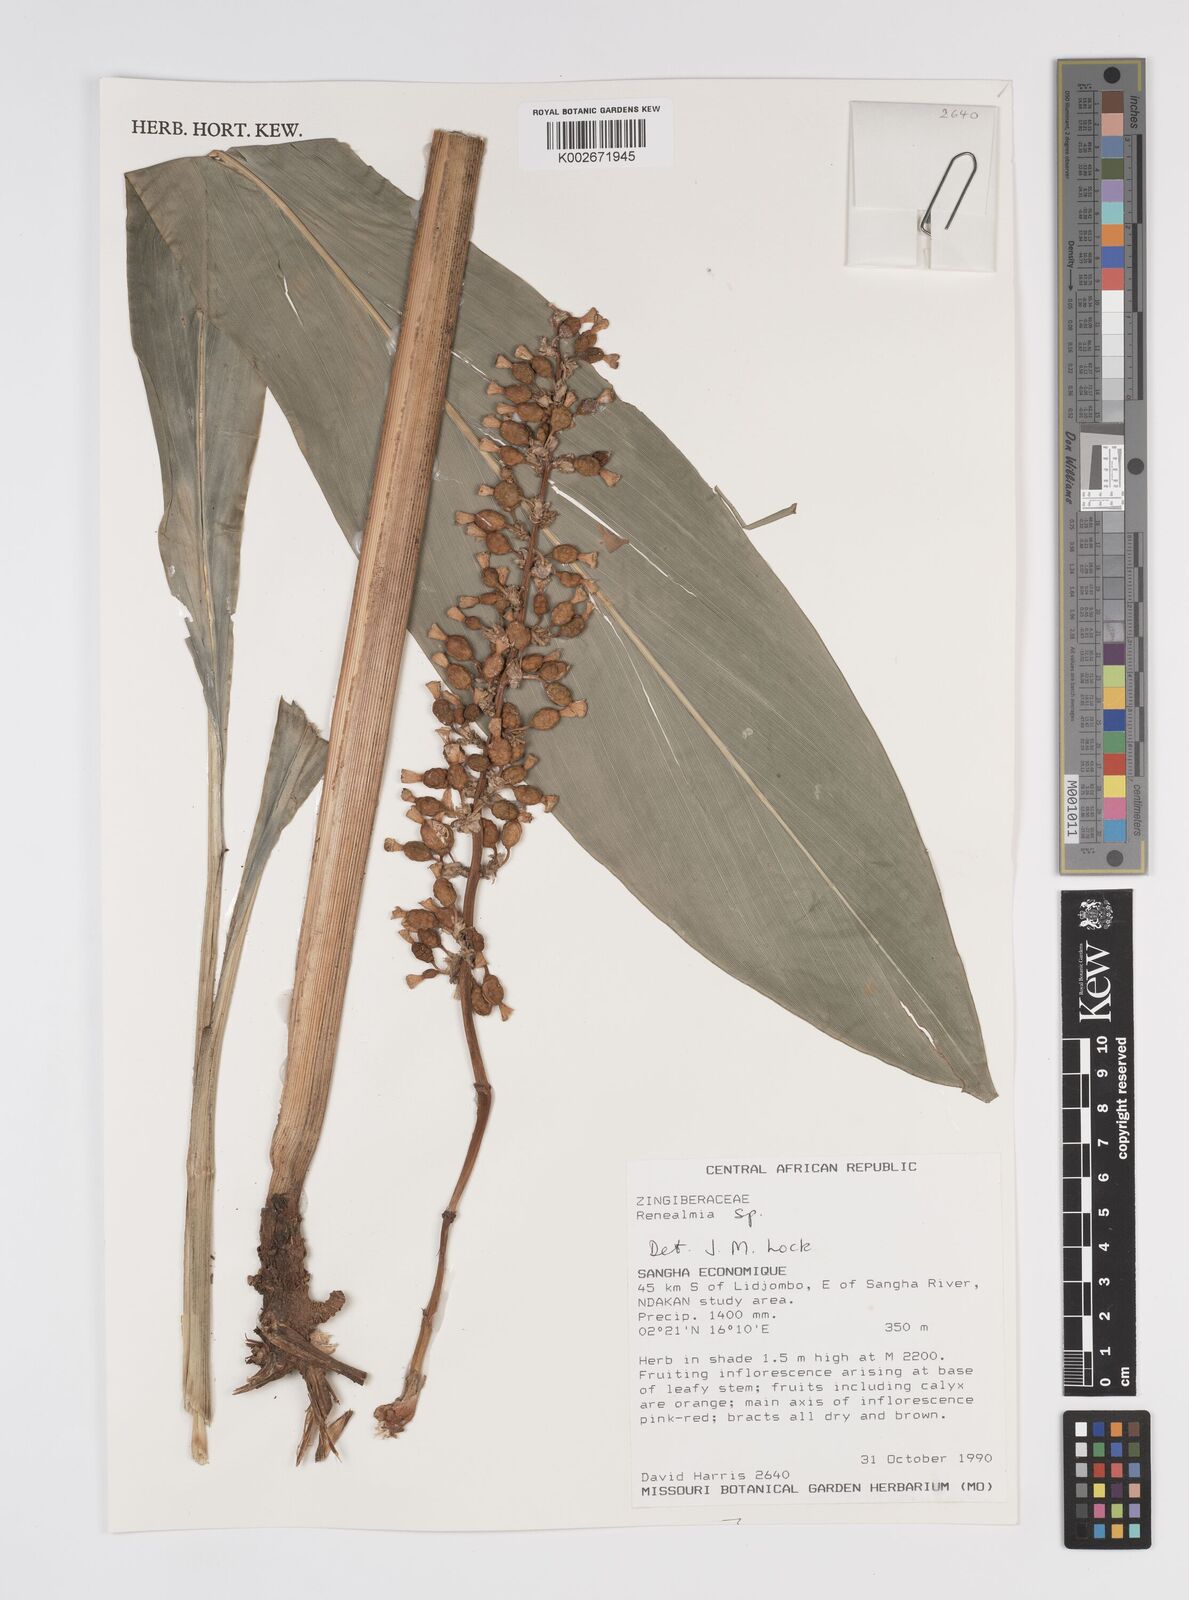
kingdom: Plantae
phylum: Tracheophyta
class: Liliopsida
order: Zingiberales
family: Zingiberaceae
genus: Renealmia
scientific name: Renealmia
